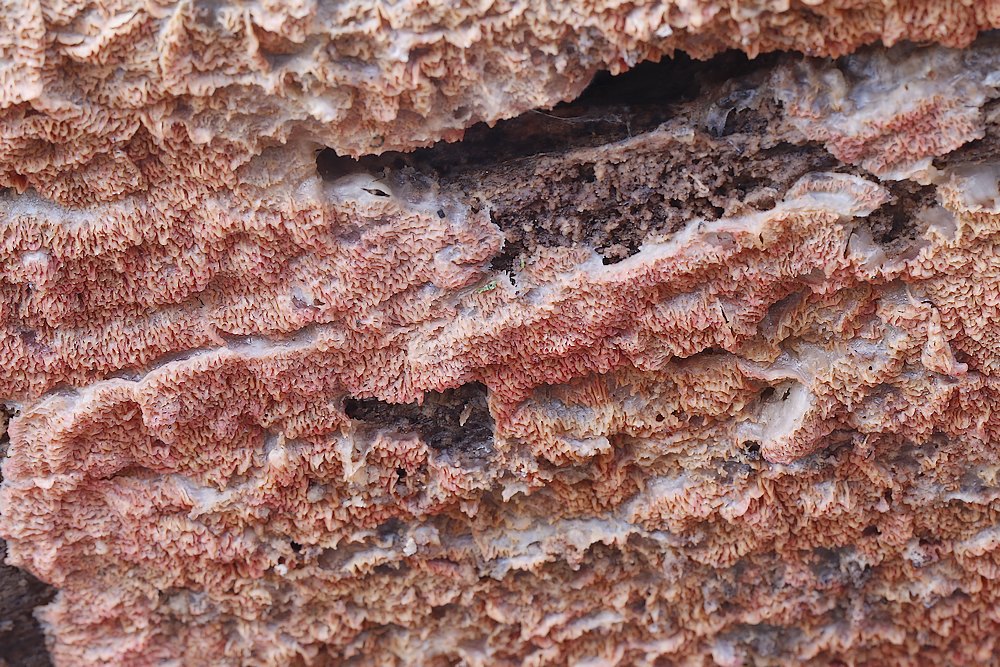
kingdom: Fungi
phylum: Basidiomycota
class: Agaricomycetes
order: Polyporales
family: Meruliaceae
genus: Mycoacia
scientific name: Mycoacia gilvescens
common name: rosa pastelporesvamp
